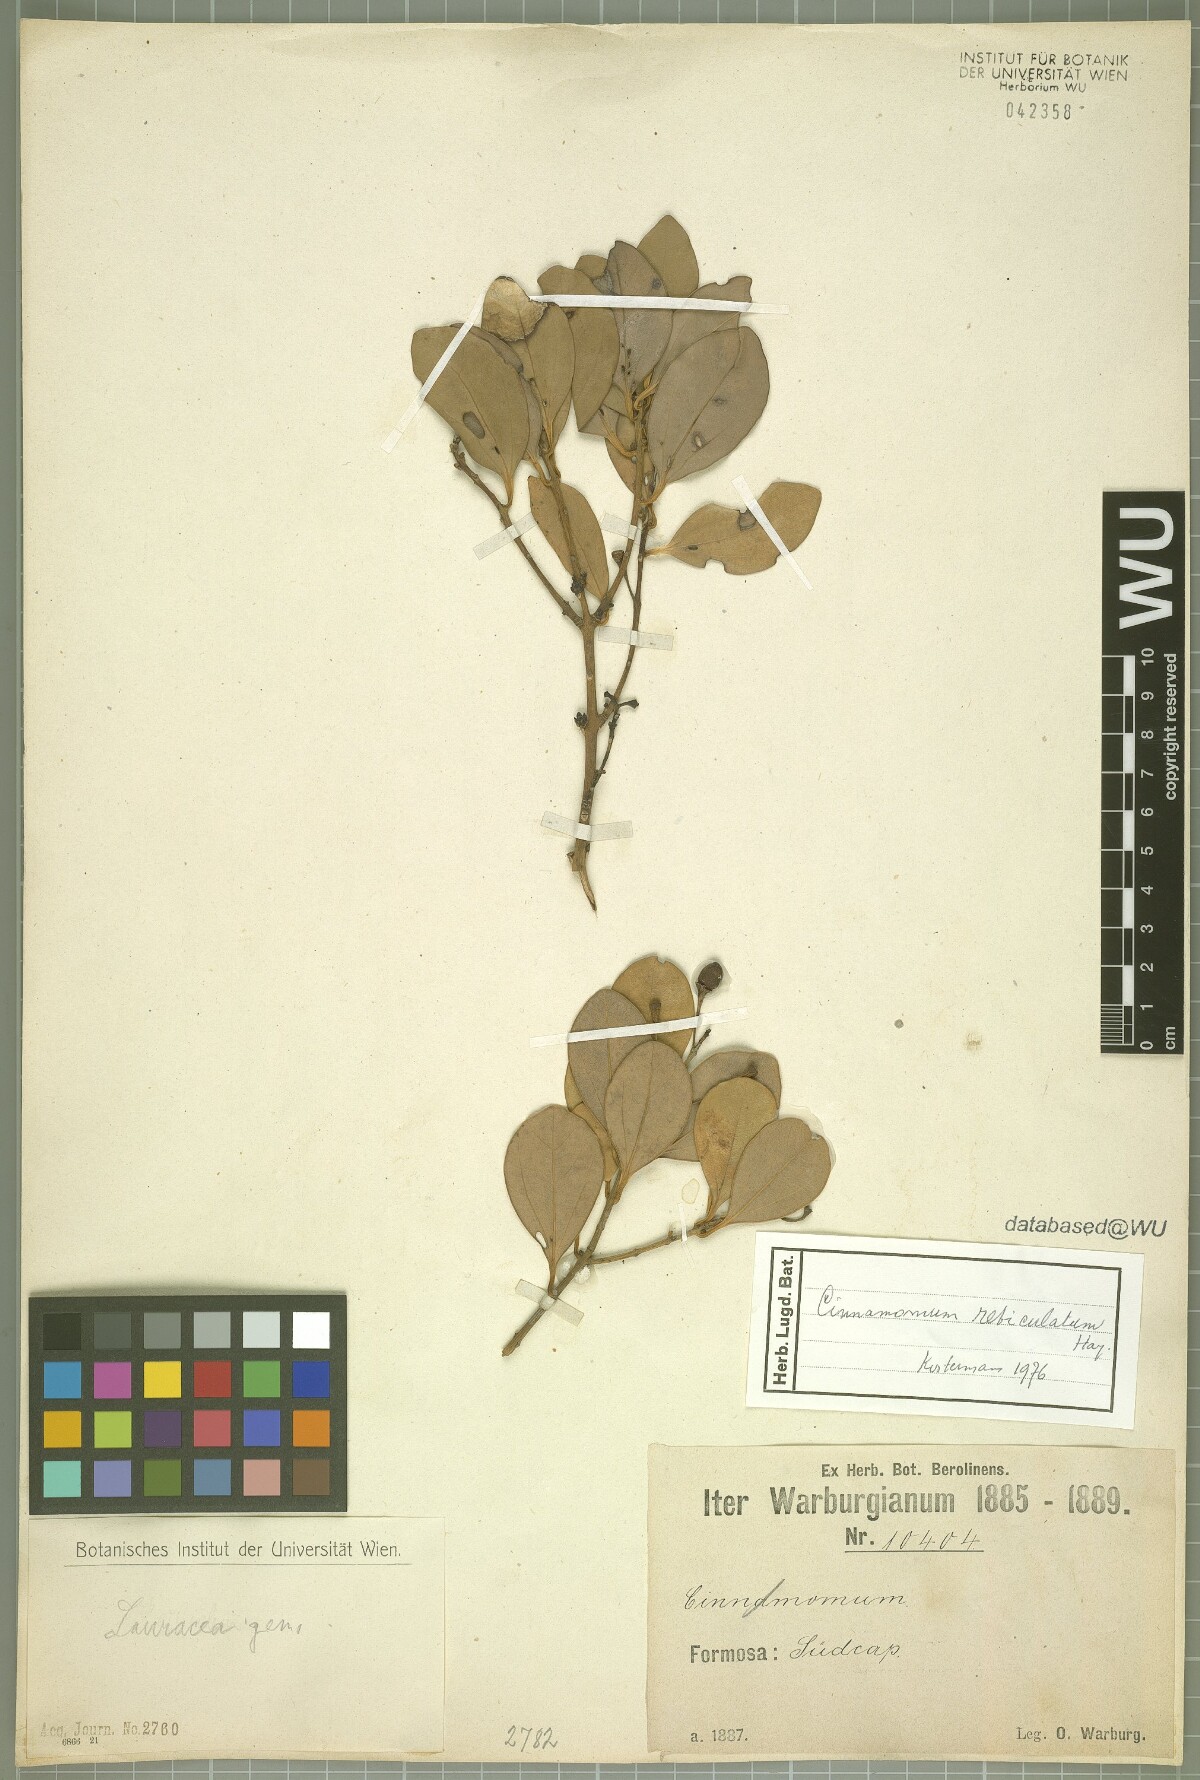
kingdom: Plantae
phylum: Tracheophyta
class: Magnoliopsida
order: Laurales
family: Lauraceae
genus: Cinnamomum
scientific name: Cinnamomum reticulatum
